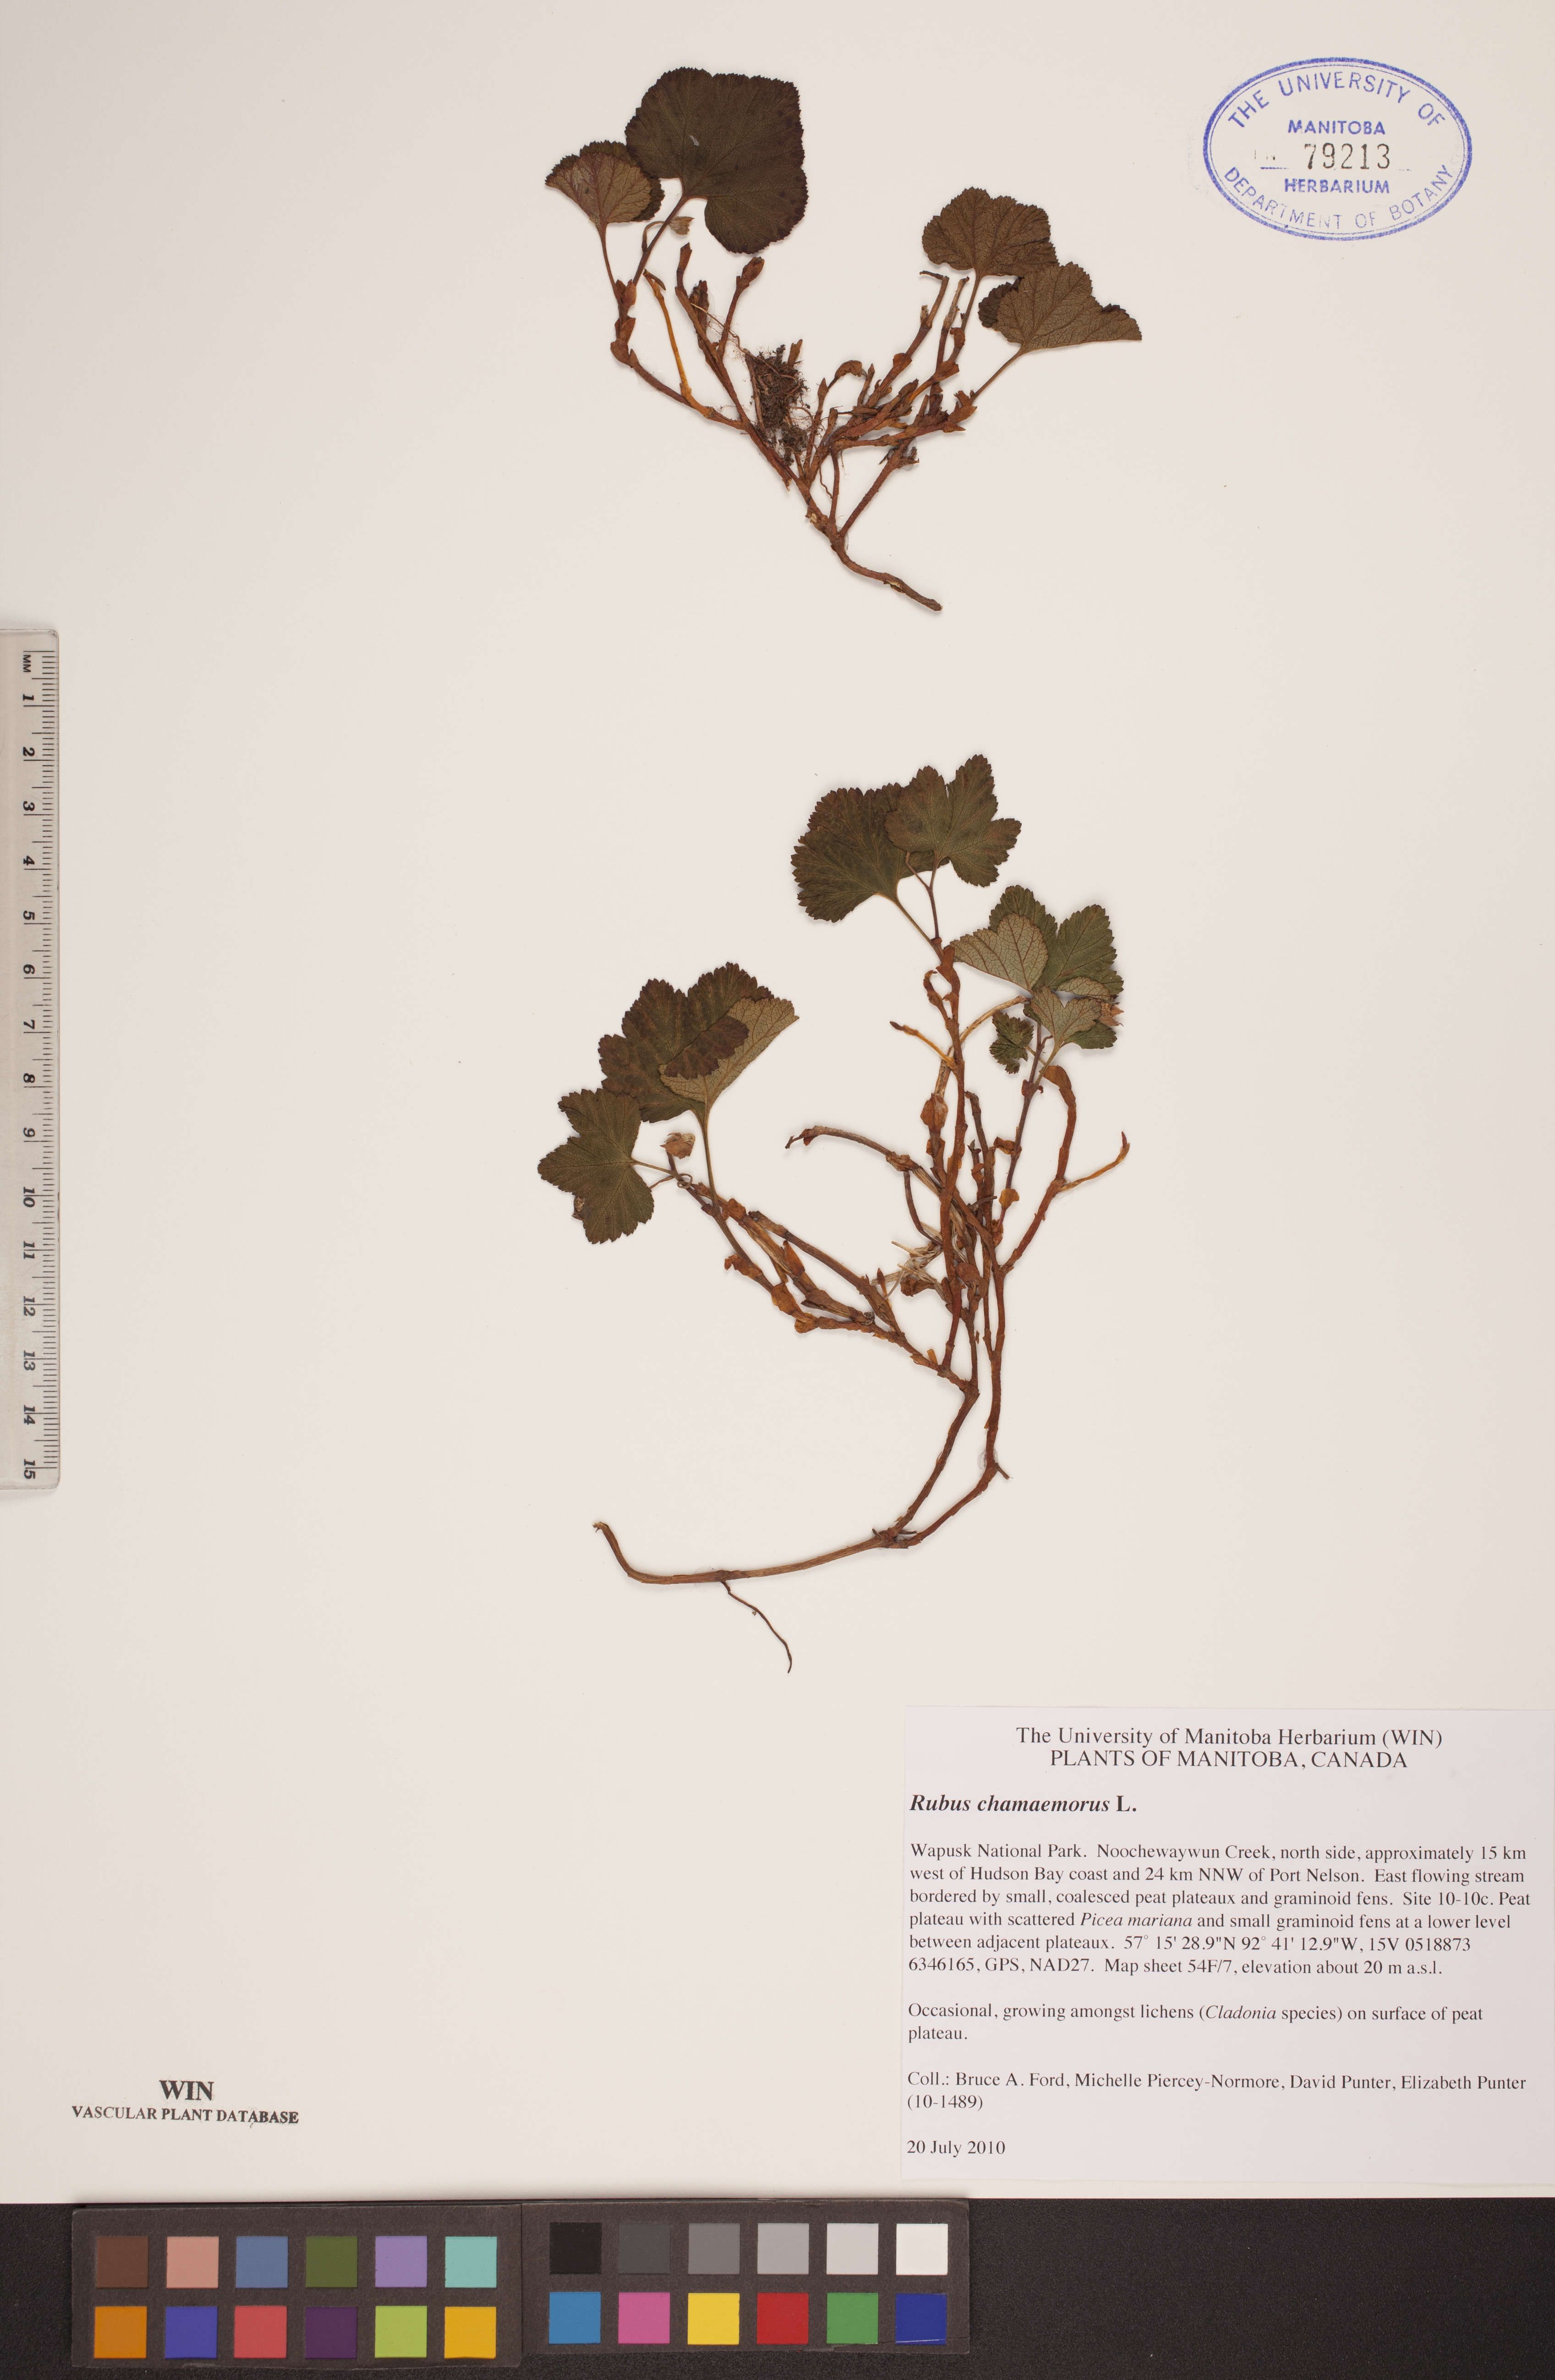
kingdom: Plantae
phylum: Tracheophyta
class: Magnoliopsida
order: Rosales
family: Rosaceae
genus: Rubus
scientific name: Rubus chamaemorus
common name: Cloudberry
